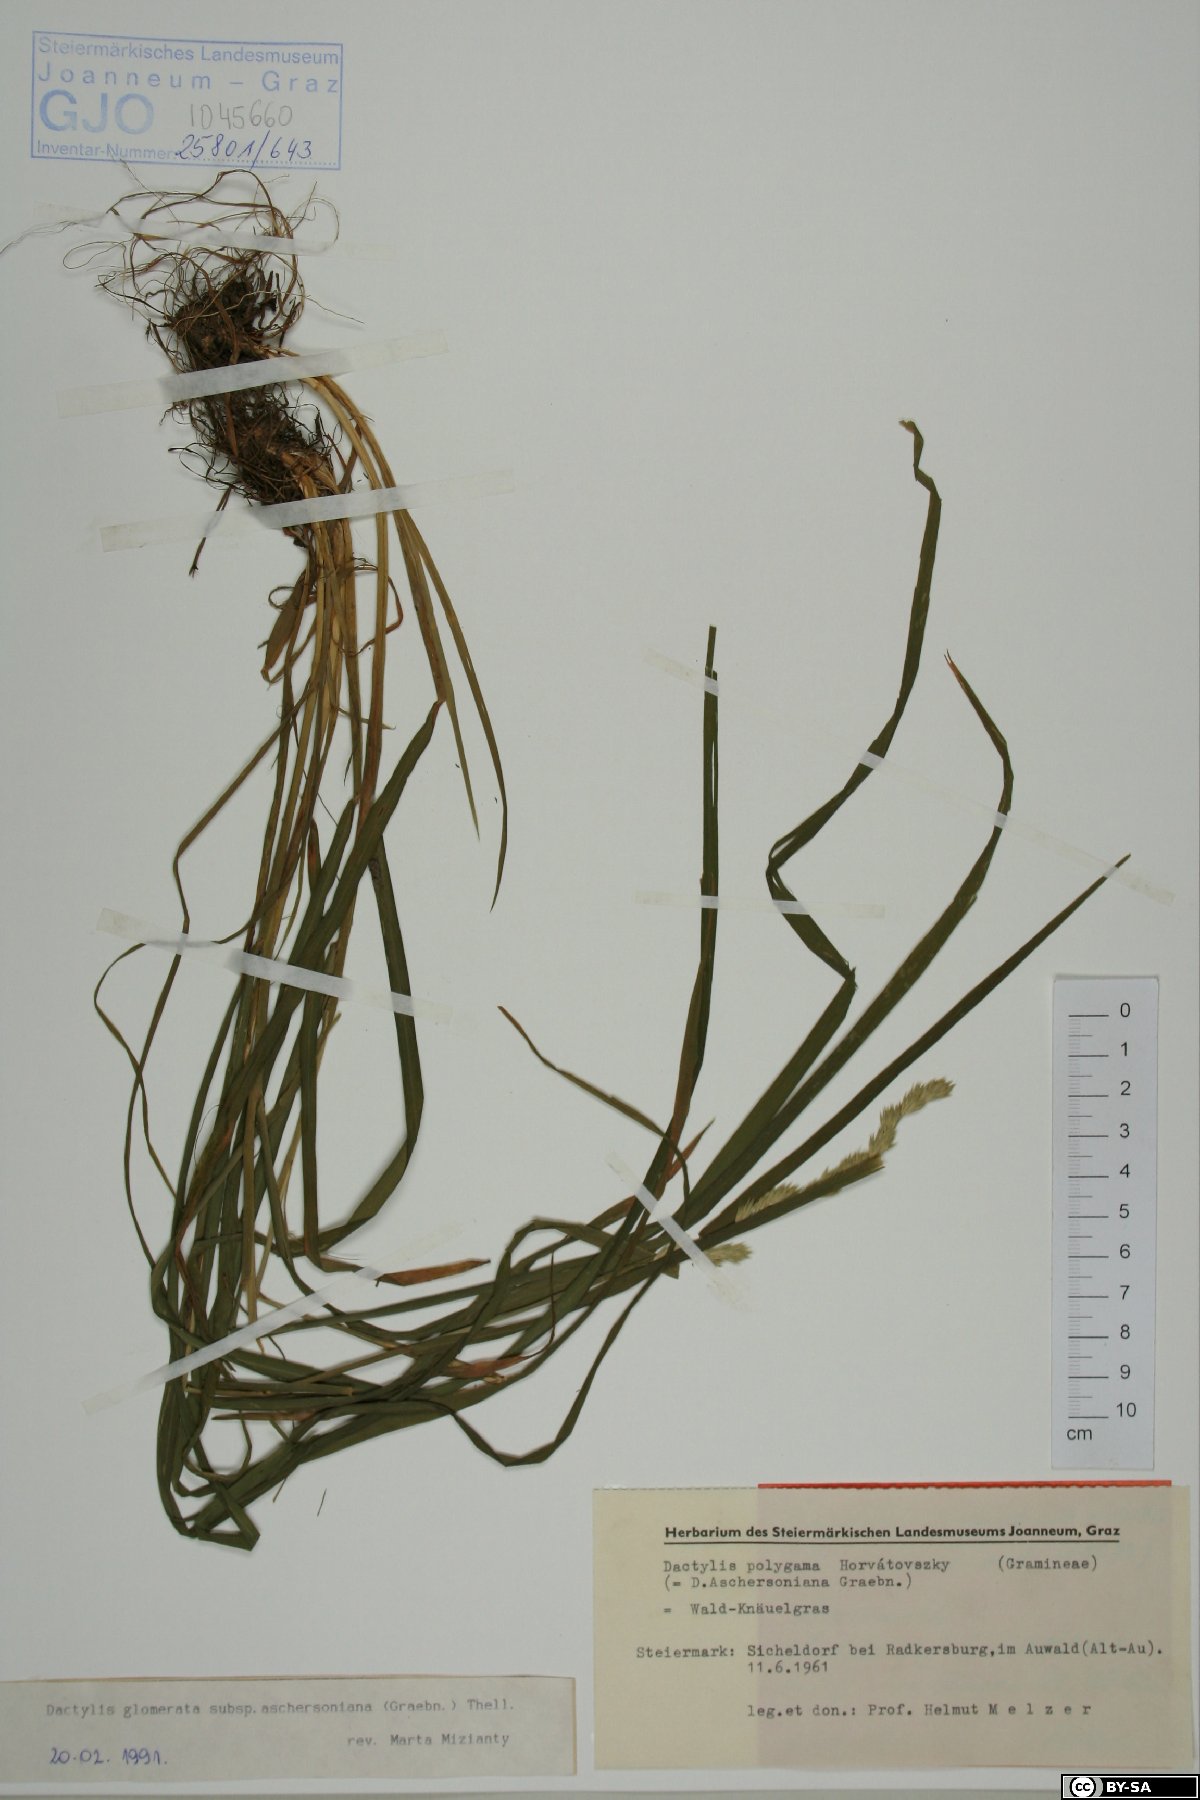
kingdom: Plantae
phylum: Tracheophyta
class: Liliopsida
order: Poales
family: Poaceae
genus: Dactylis
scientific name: Dactylis glomerata
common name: Orchardgrass
